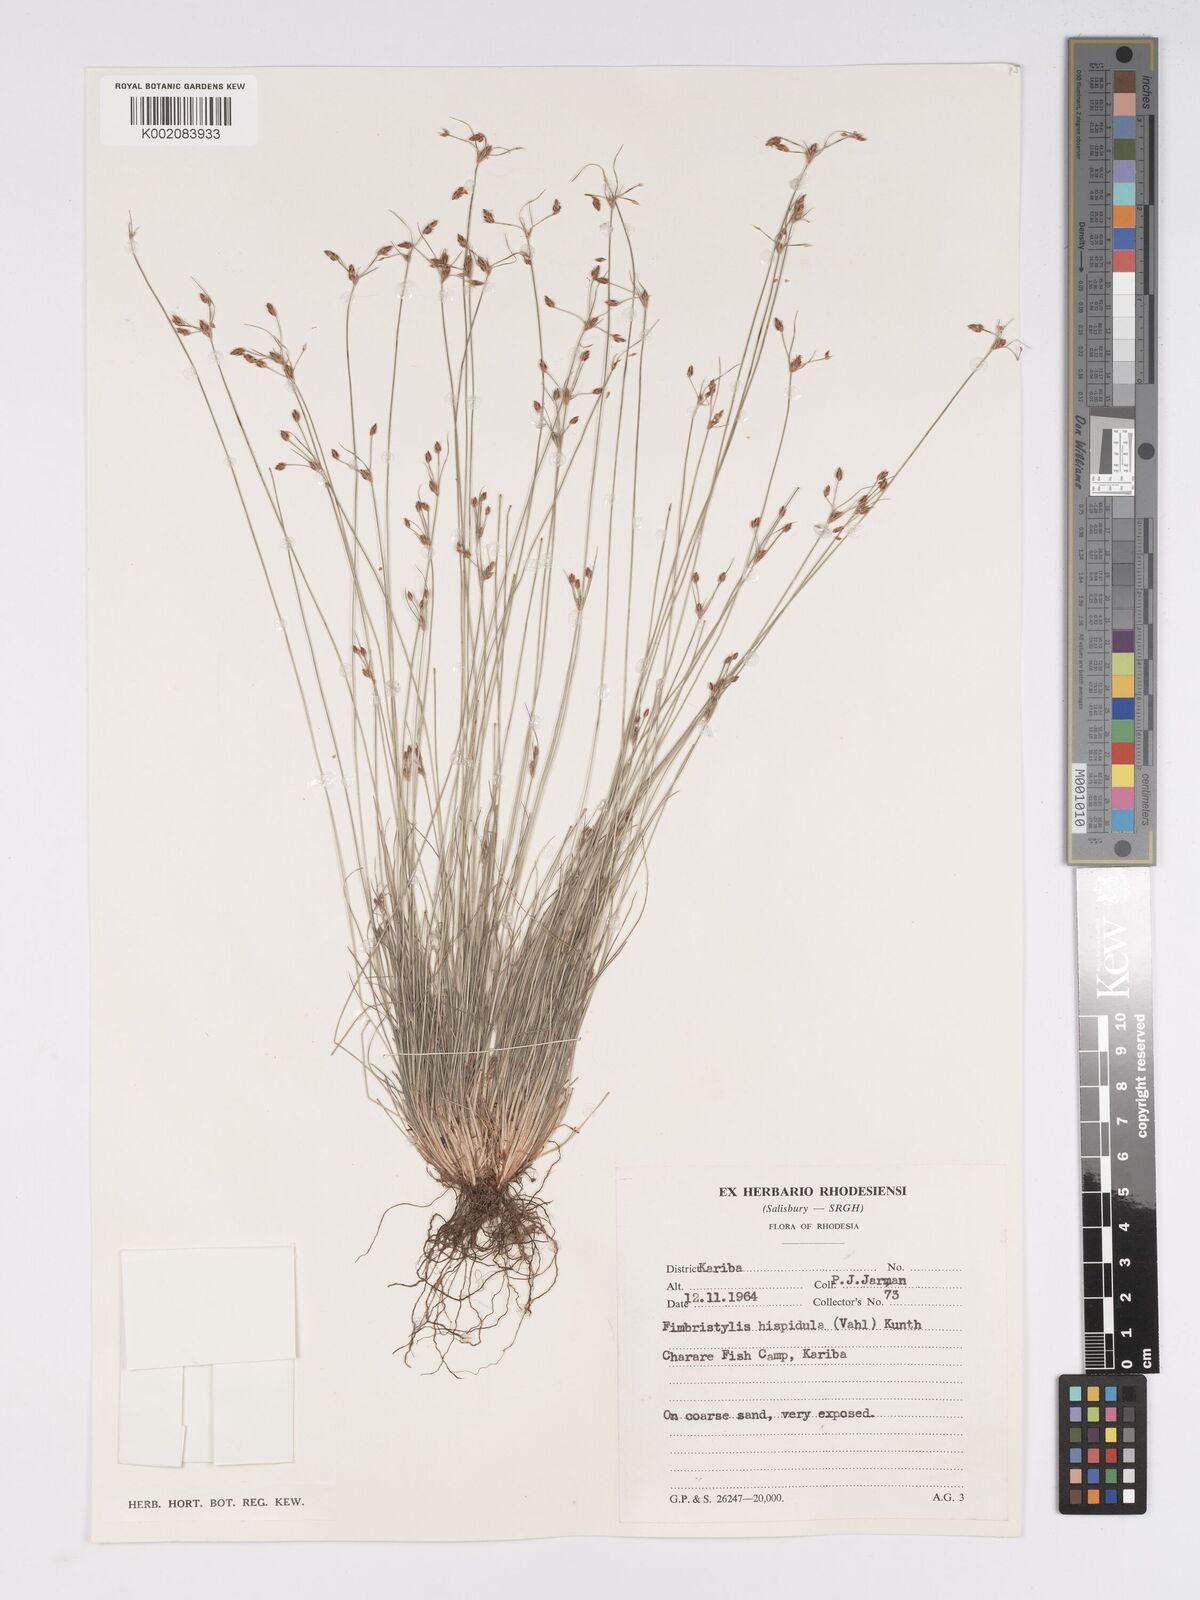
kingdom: Plantae
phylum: Tracheophyta
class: Liliopsida
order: Poales
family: Cyperaceae
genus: Bulbostylis
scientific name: Bulbostylis hispidula
